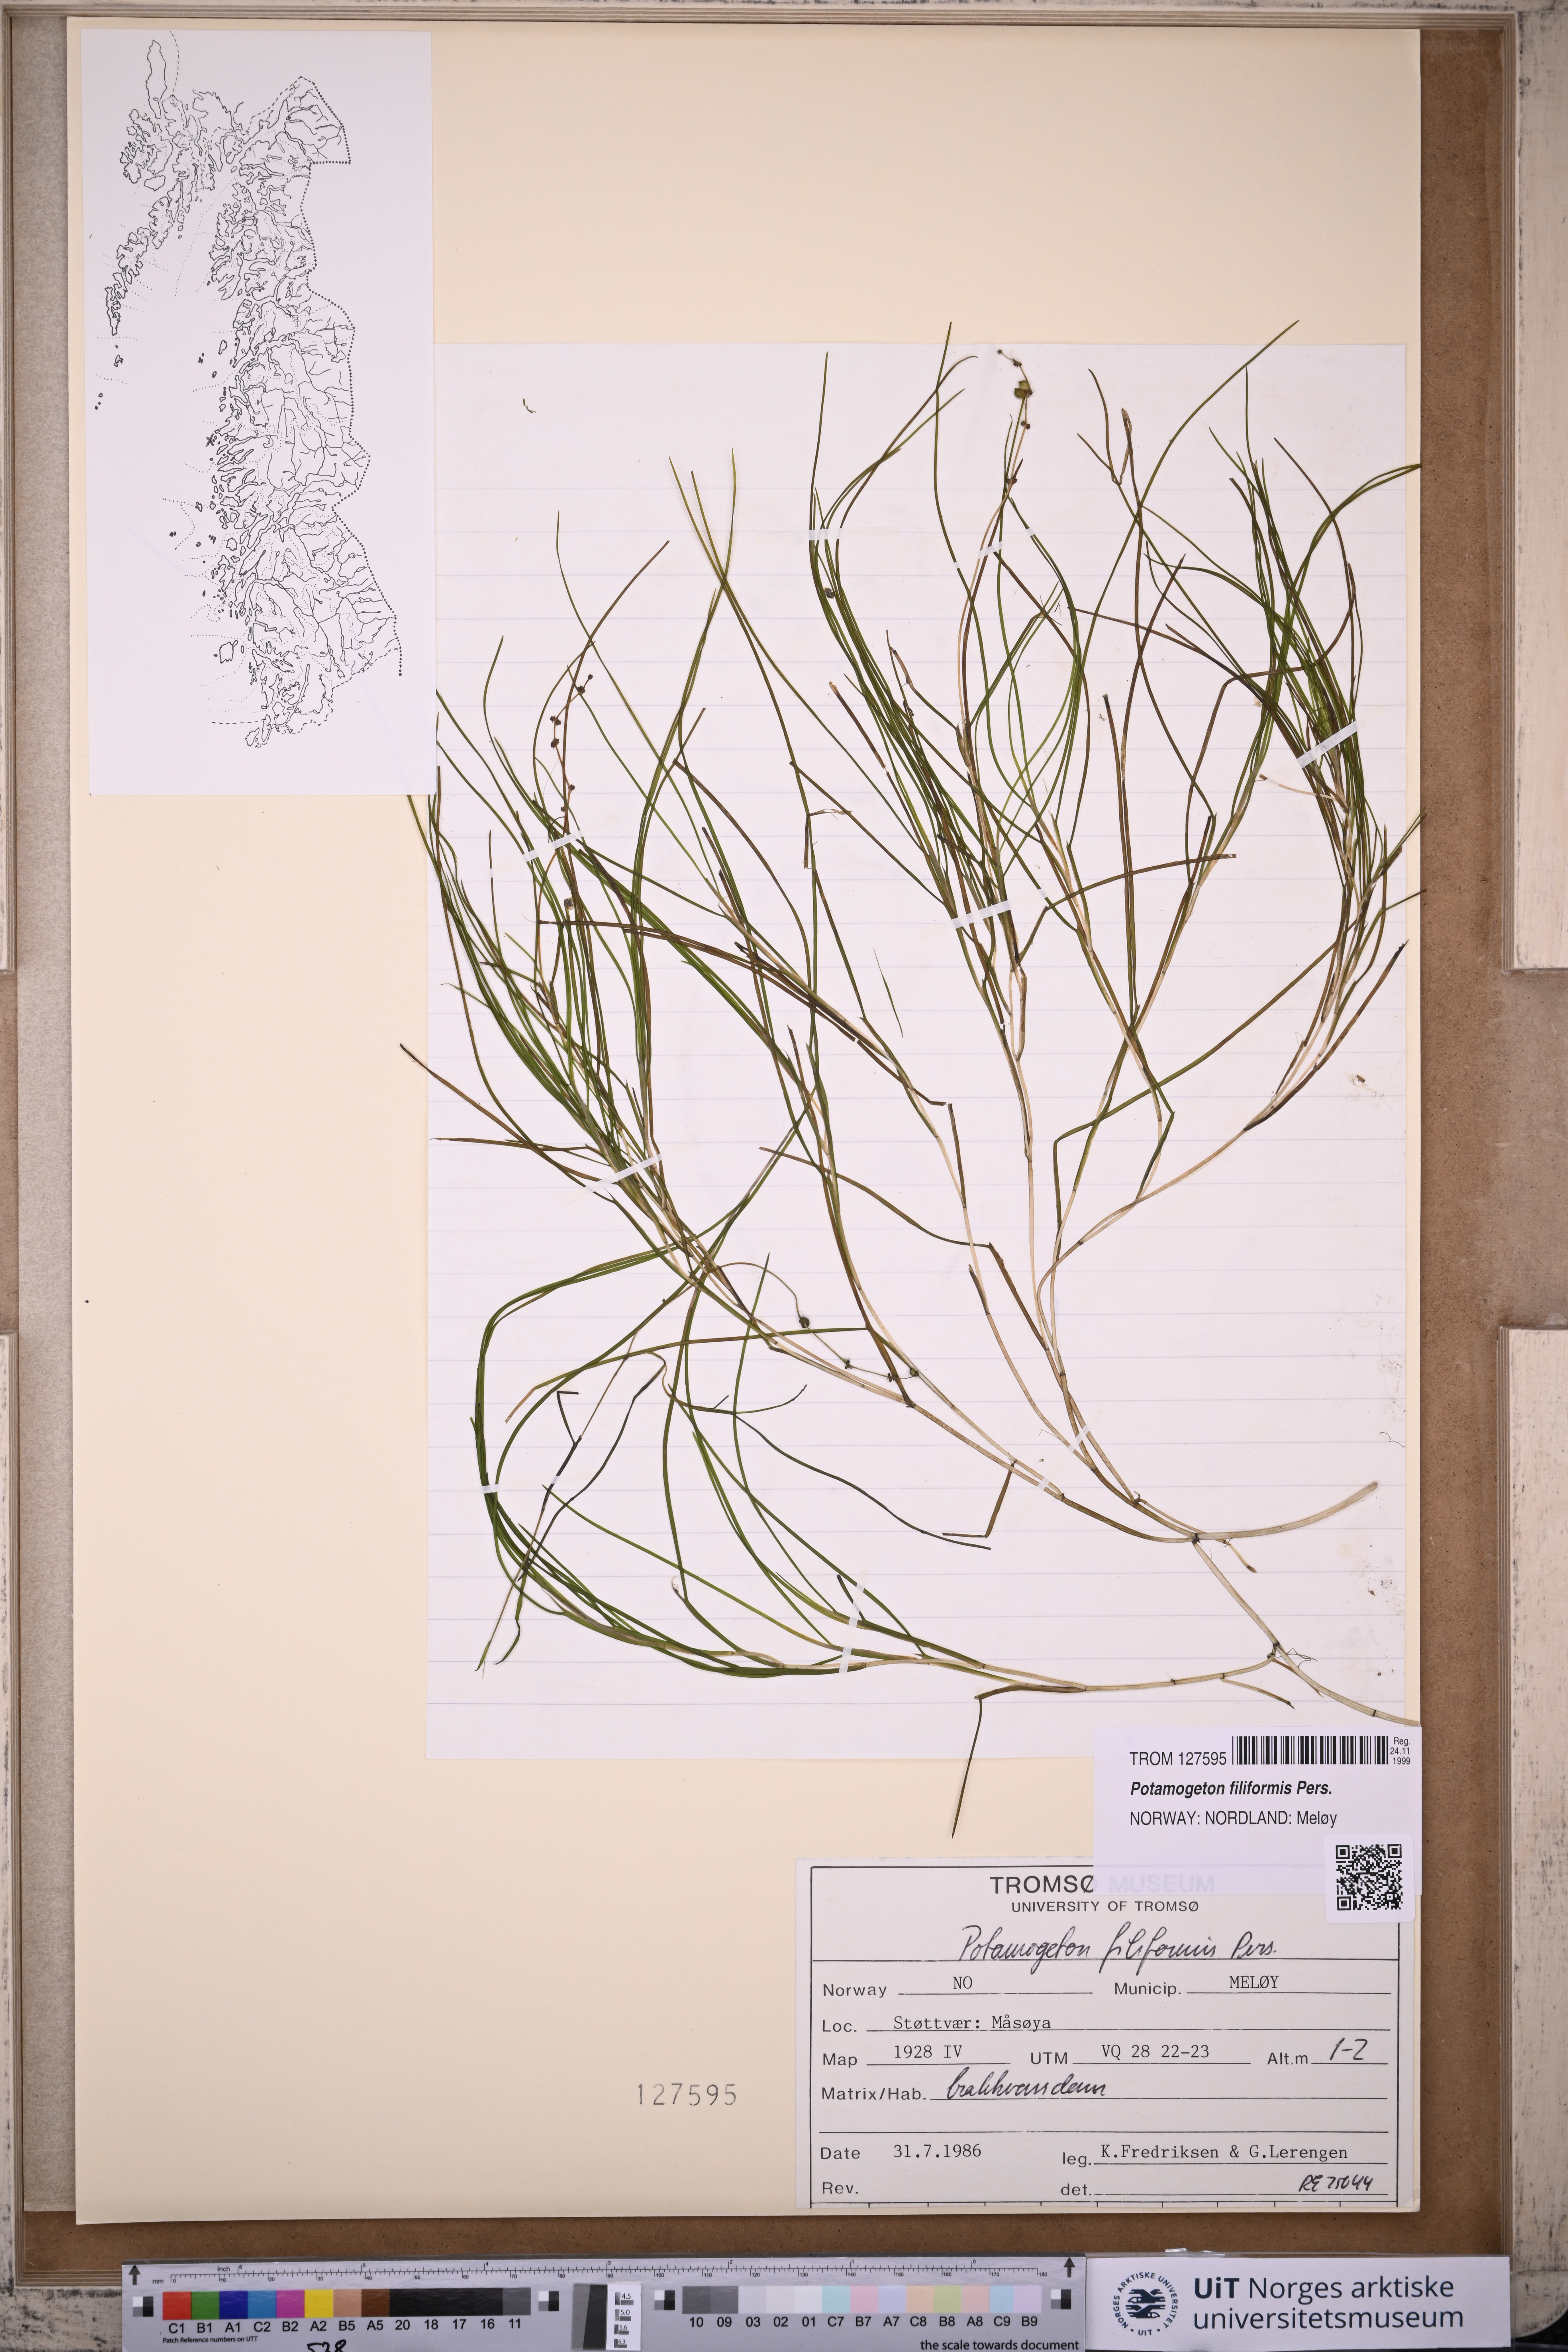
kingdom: Plantae
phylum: Tracheophyta
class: Liliopsida
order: Alismatales
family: Potamogetonaceae
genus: Stuckenia
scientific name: Stuckenia filiformis
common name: Alpine thread-leaved pondweed
